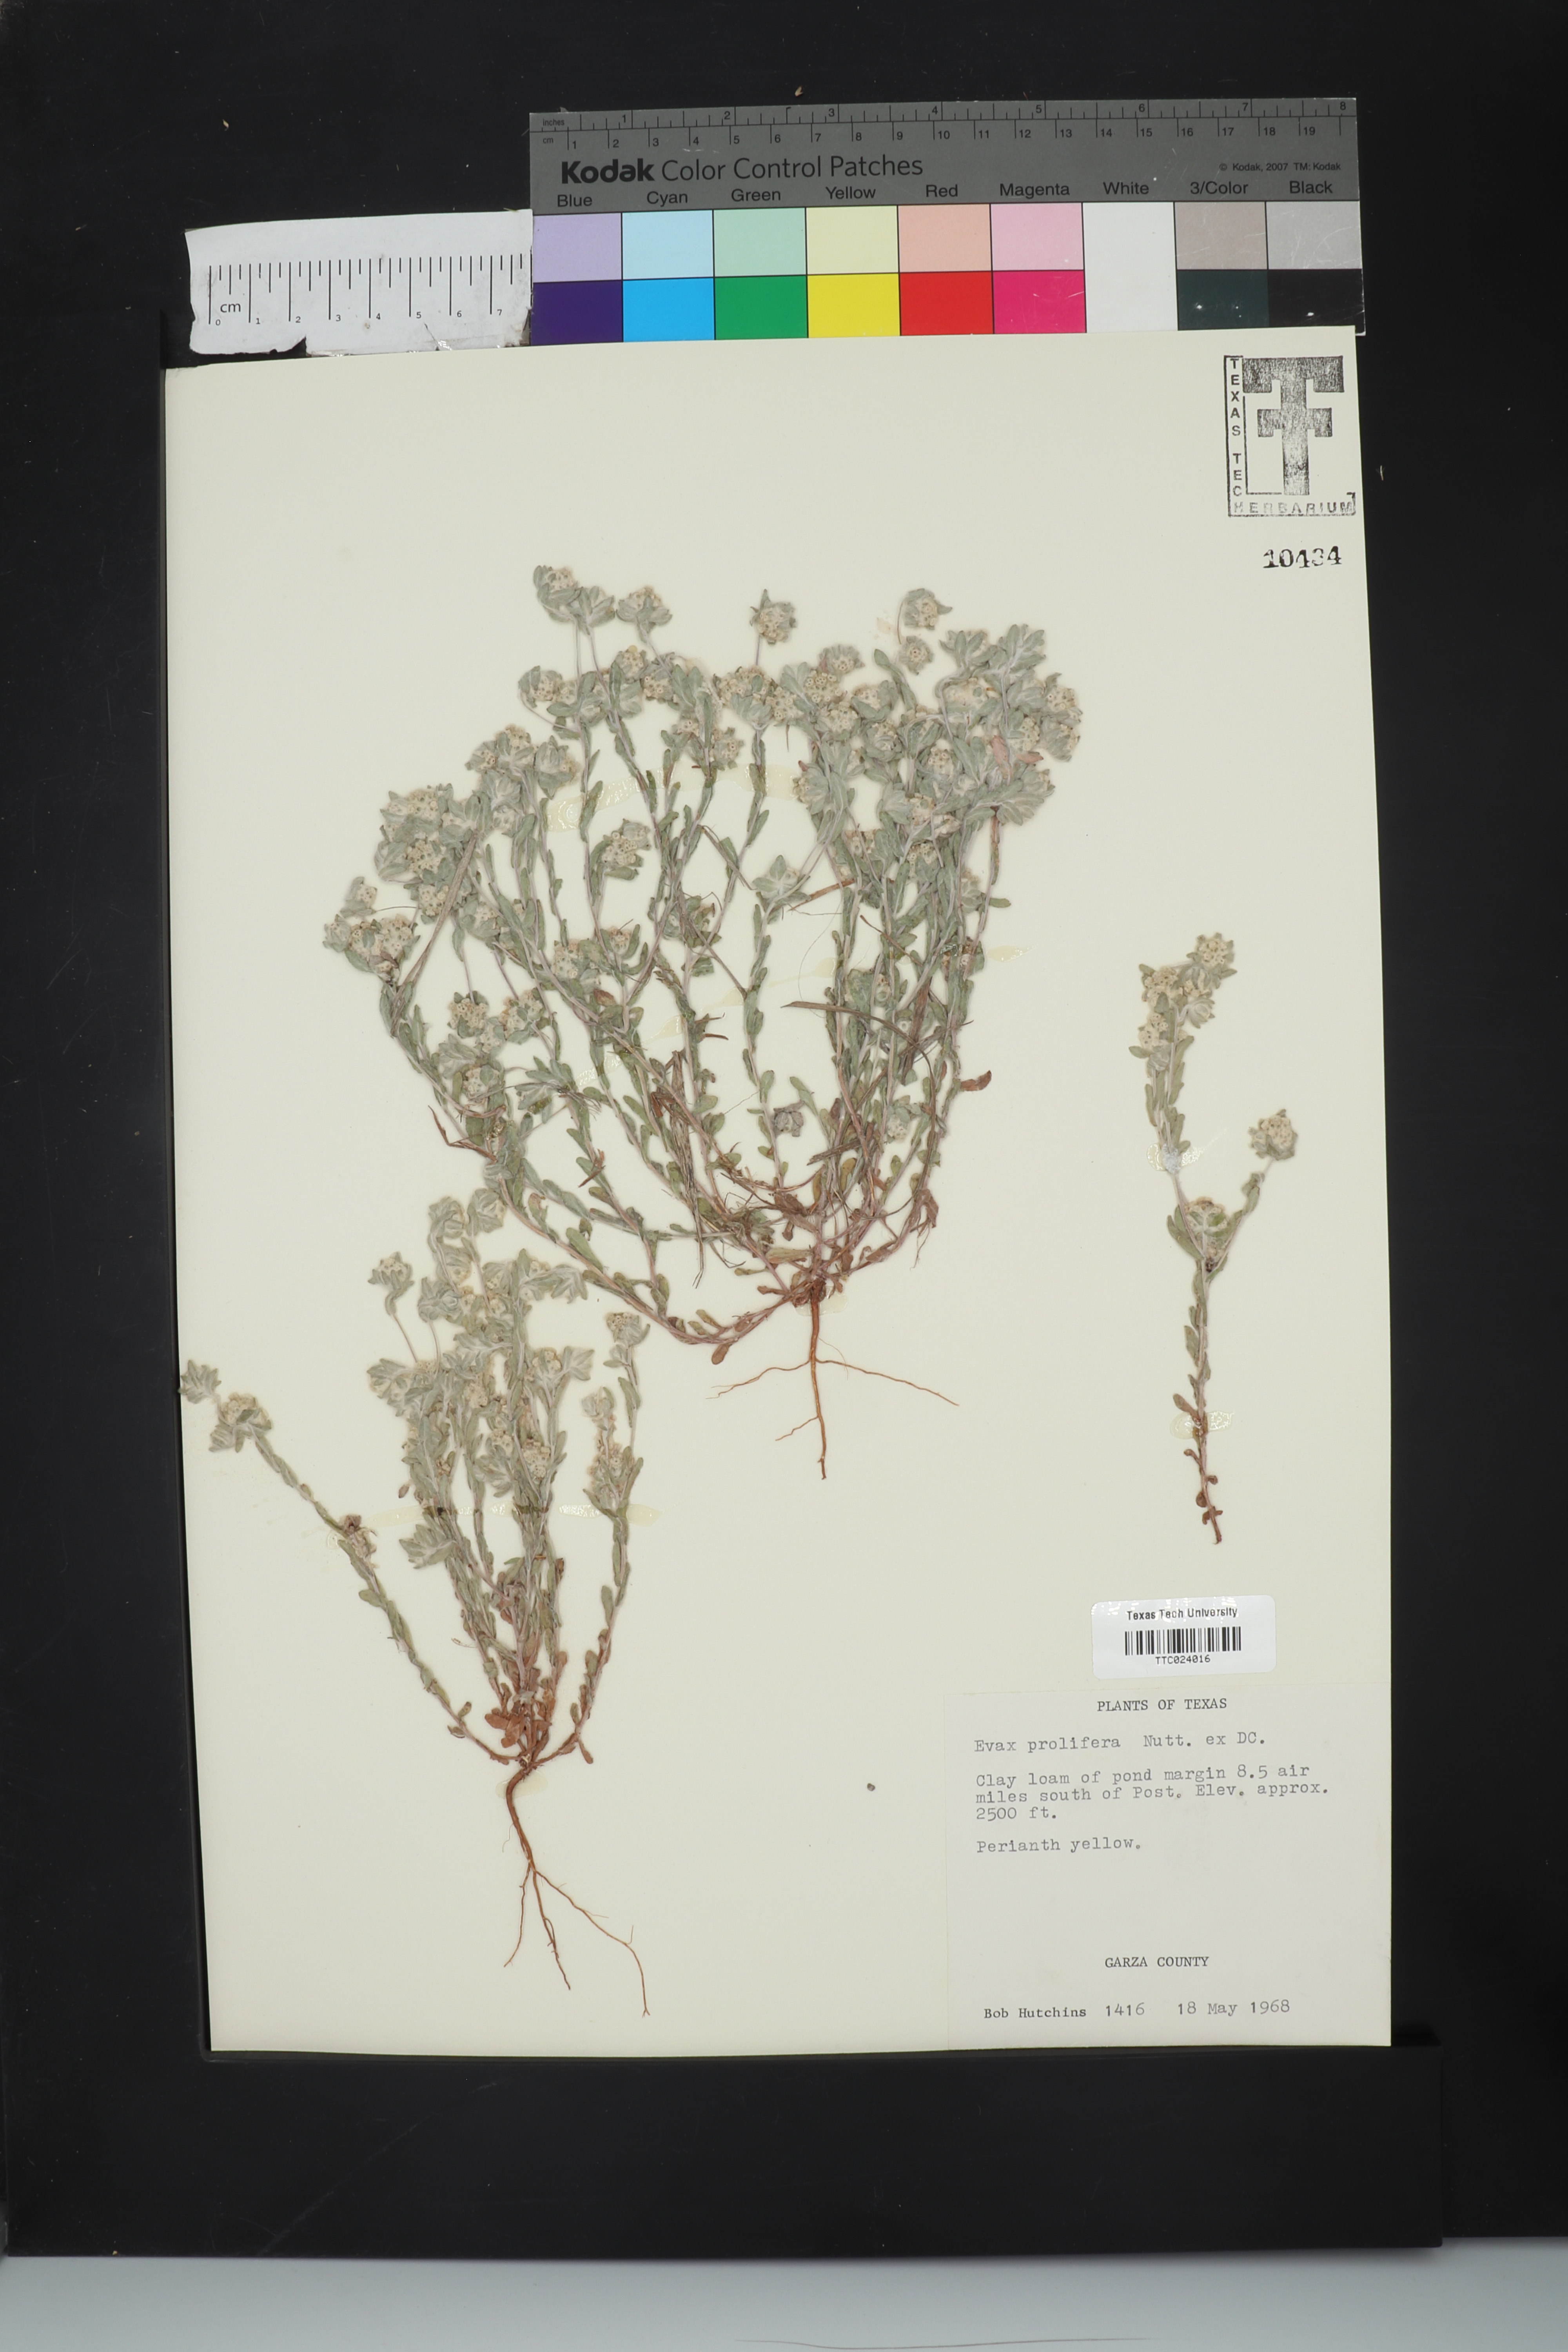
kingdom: Plantae
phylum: Tracheophyta
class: Magnoliopsida
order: Asterales
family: Asteraceae
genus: Diaperia
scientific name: Diaperia prolifera
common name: Big-head rabbit-tobacco
